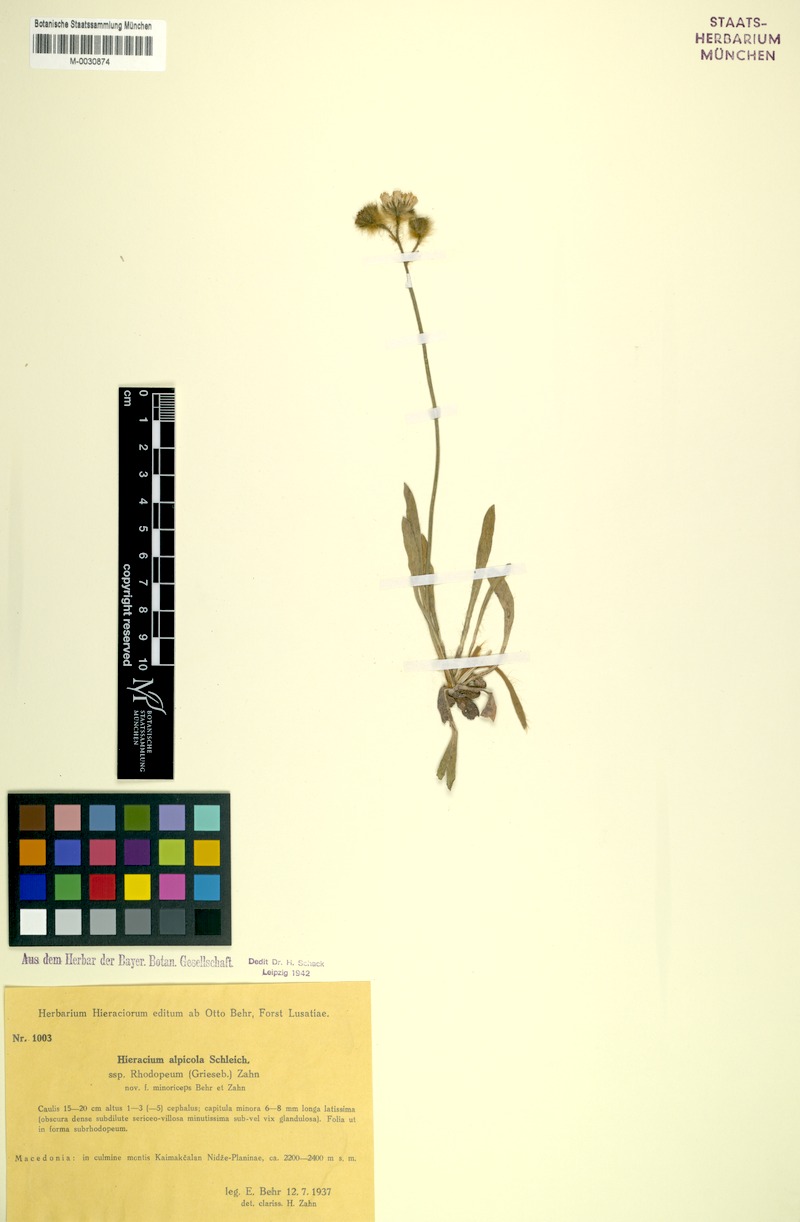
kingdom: Plantae
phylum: Tracheophyta
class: Magnoliopsida
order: Asterales
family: Asteraceae
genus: Pilosella
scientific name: Pilosella alpicola
